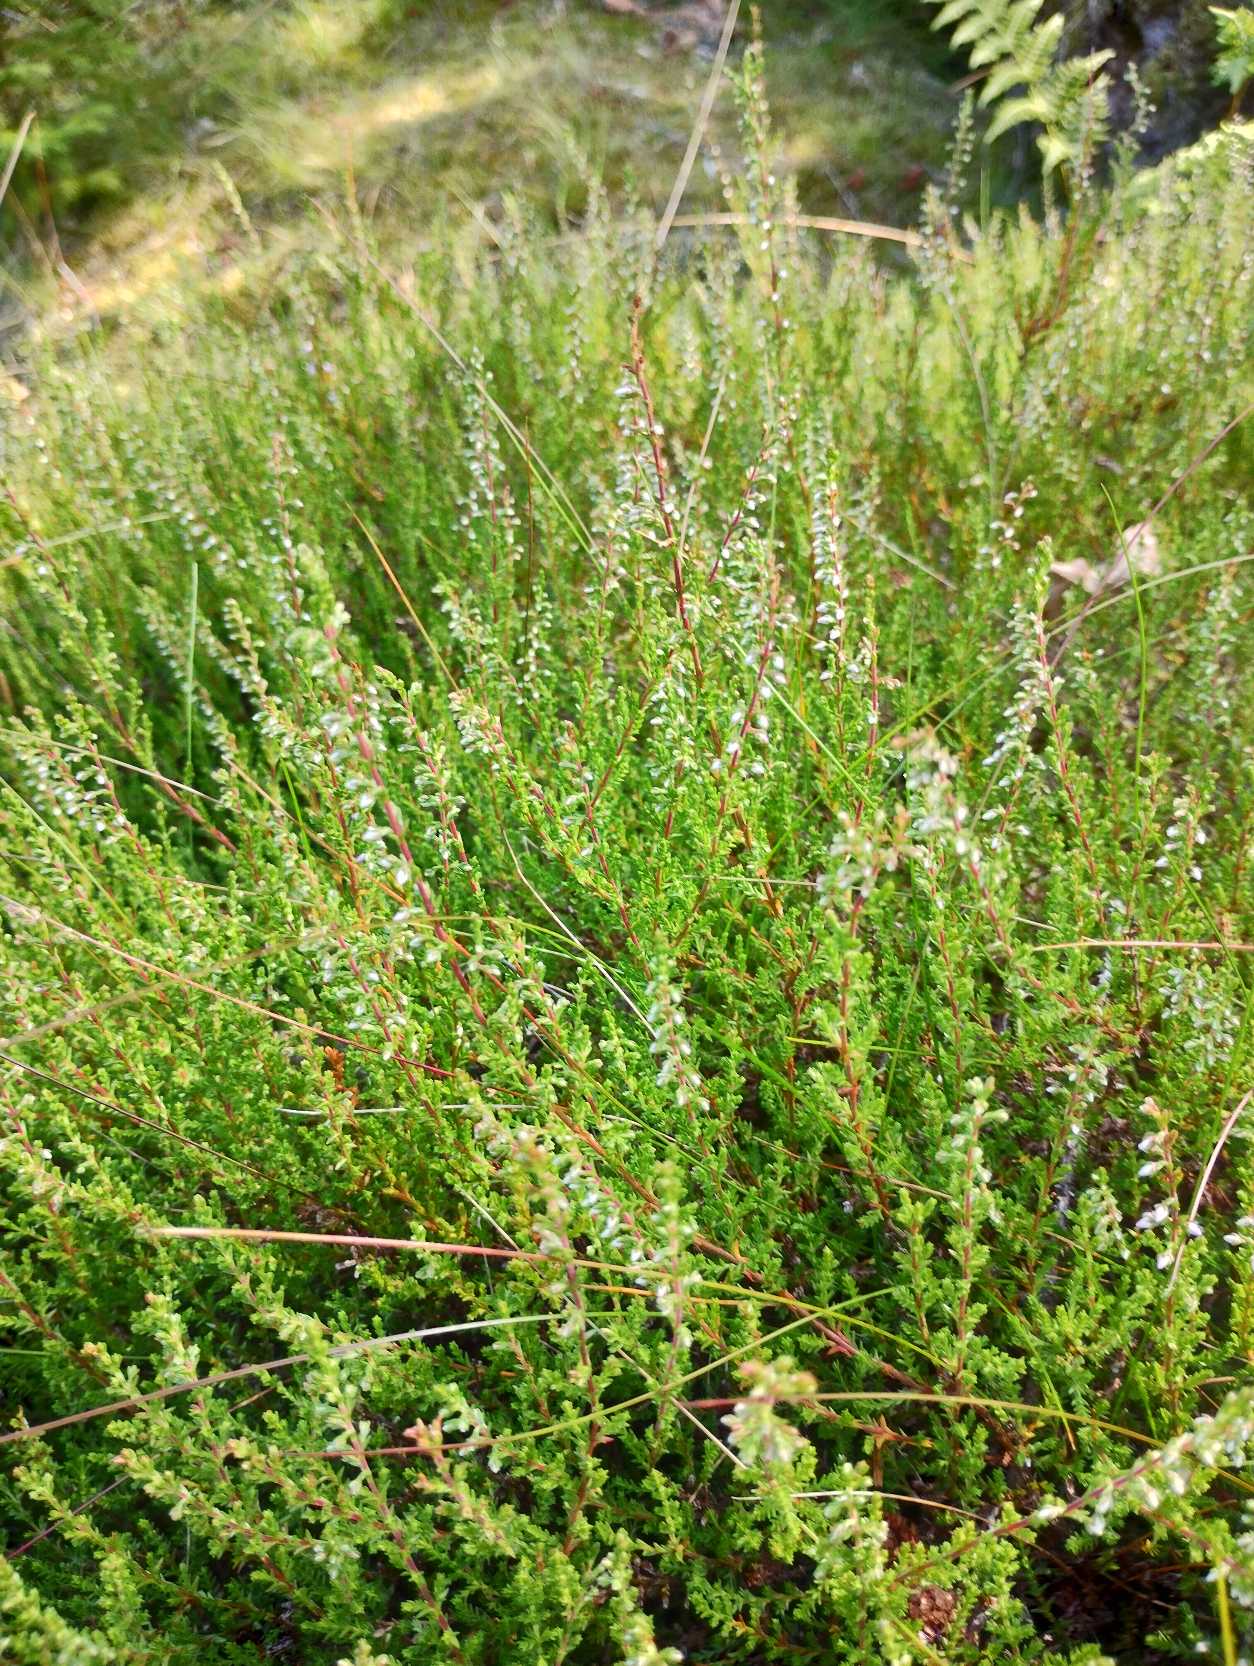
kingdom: Plantae
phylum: Tracheophyta
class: Magnoliopsida
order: Ericales
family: Ericaceae
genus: Calluna
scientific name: Calluna vulgaris
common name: Hedelyng
